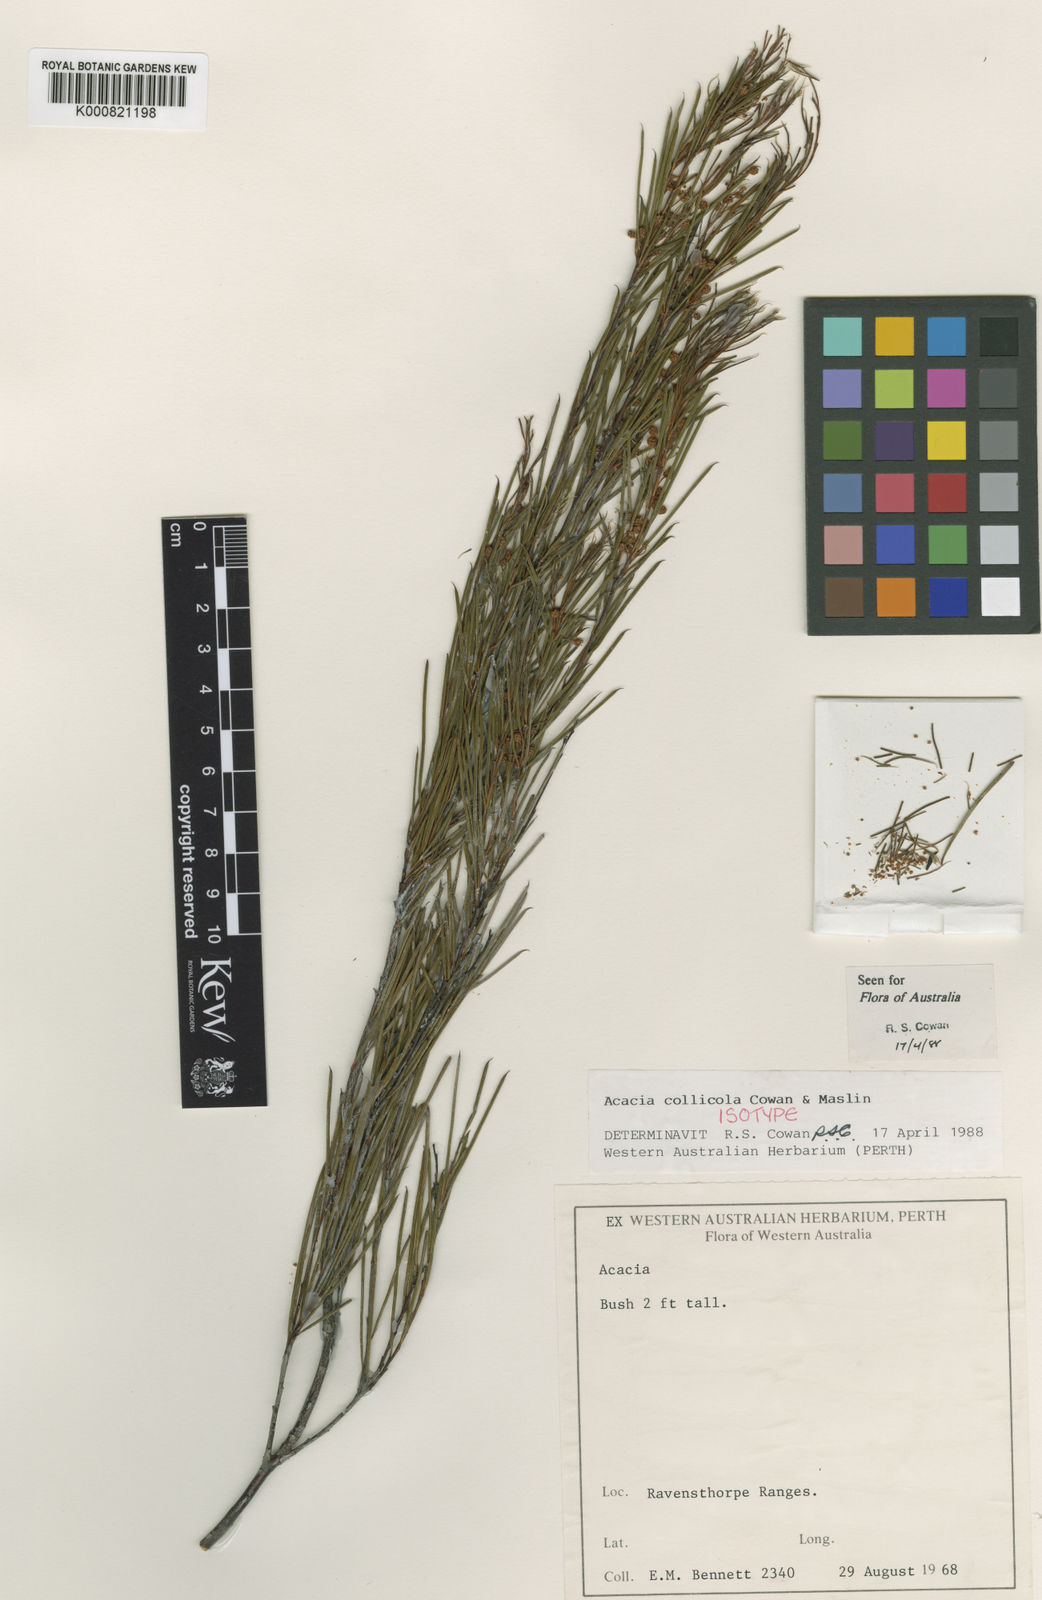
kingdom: Plantae
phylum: Tracheophyta
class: Magnoliopsida
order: Fabales
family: Fabaceae
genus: Acacia
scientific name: Acacia
